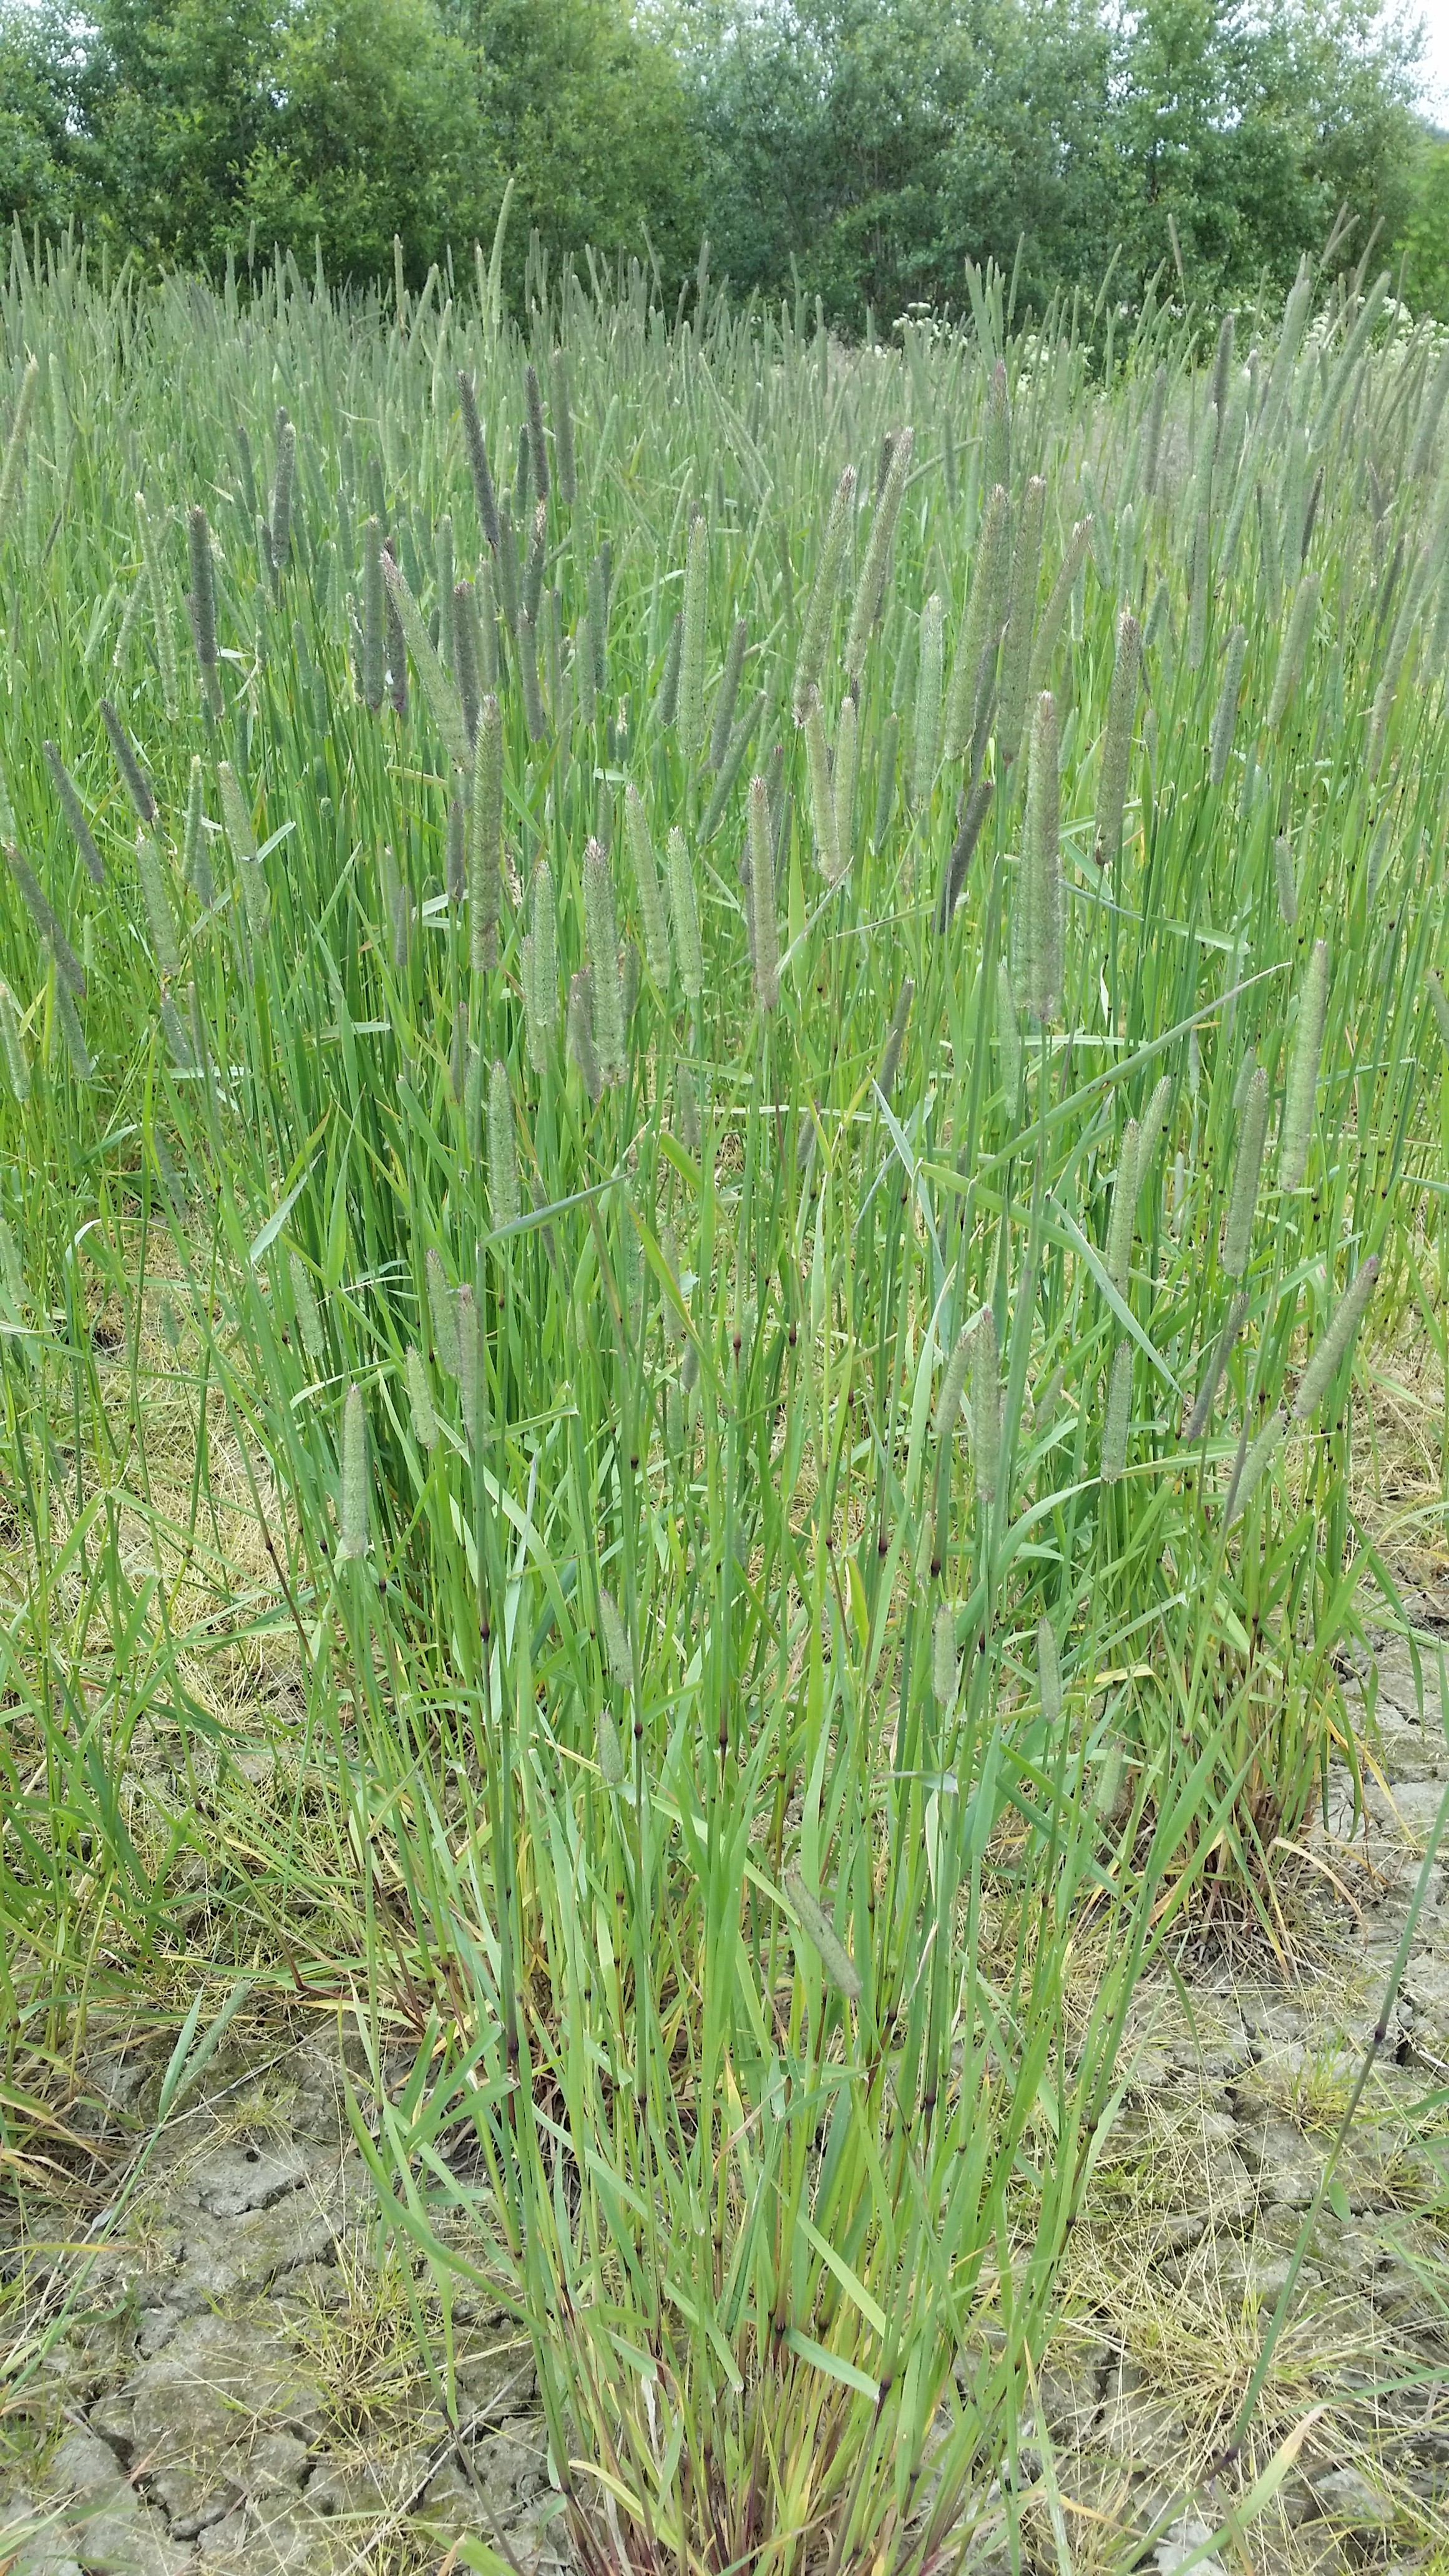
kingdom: Plantae
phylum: Tracheophyta
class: Liliopsida
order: Poales
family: Poaceae
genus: Phleum
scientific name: Phleum pratense
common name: Timothy grass
